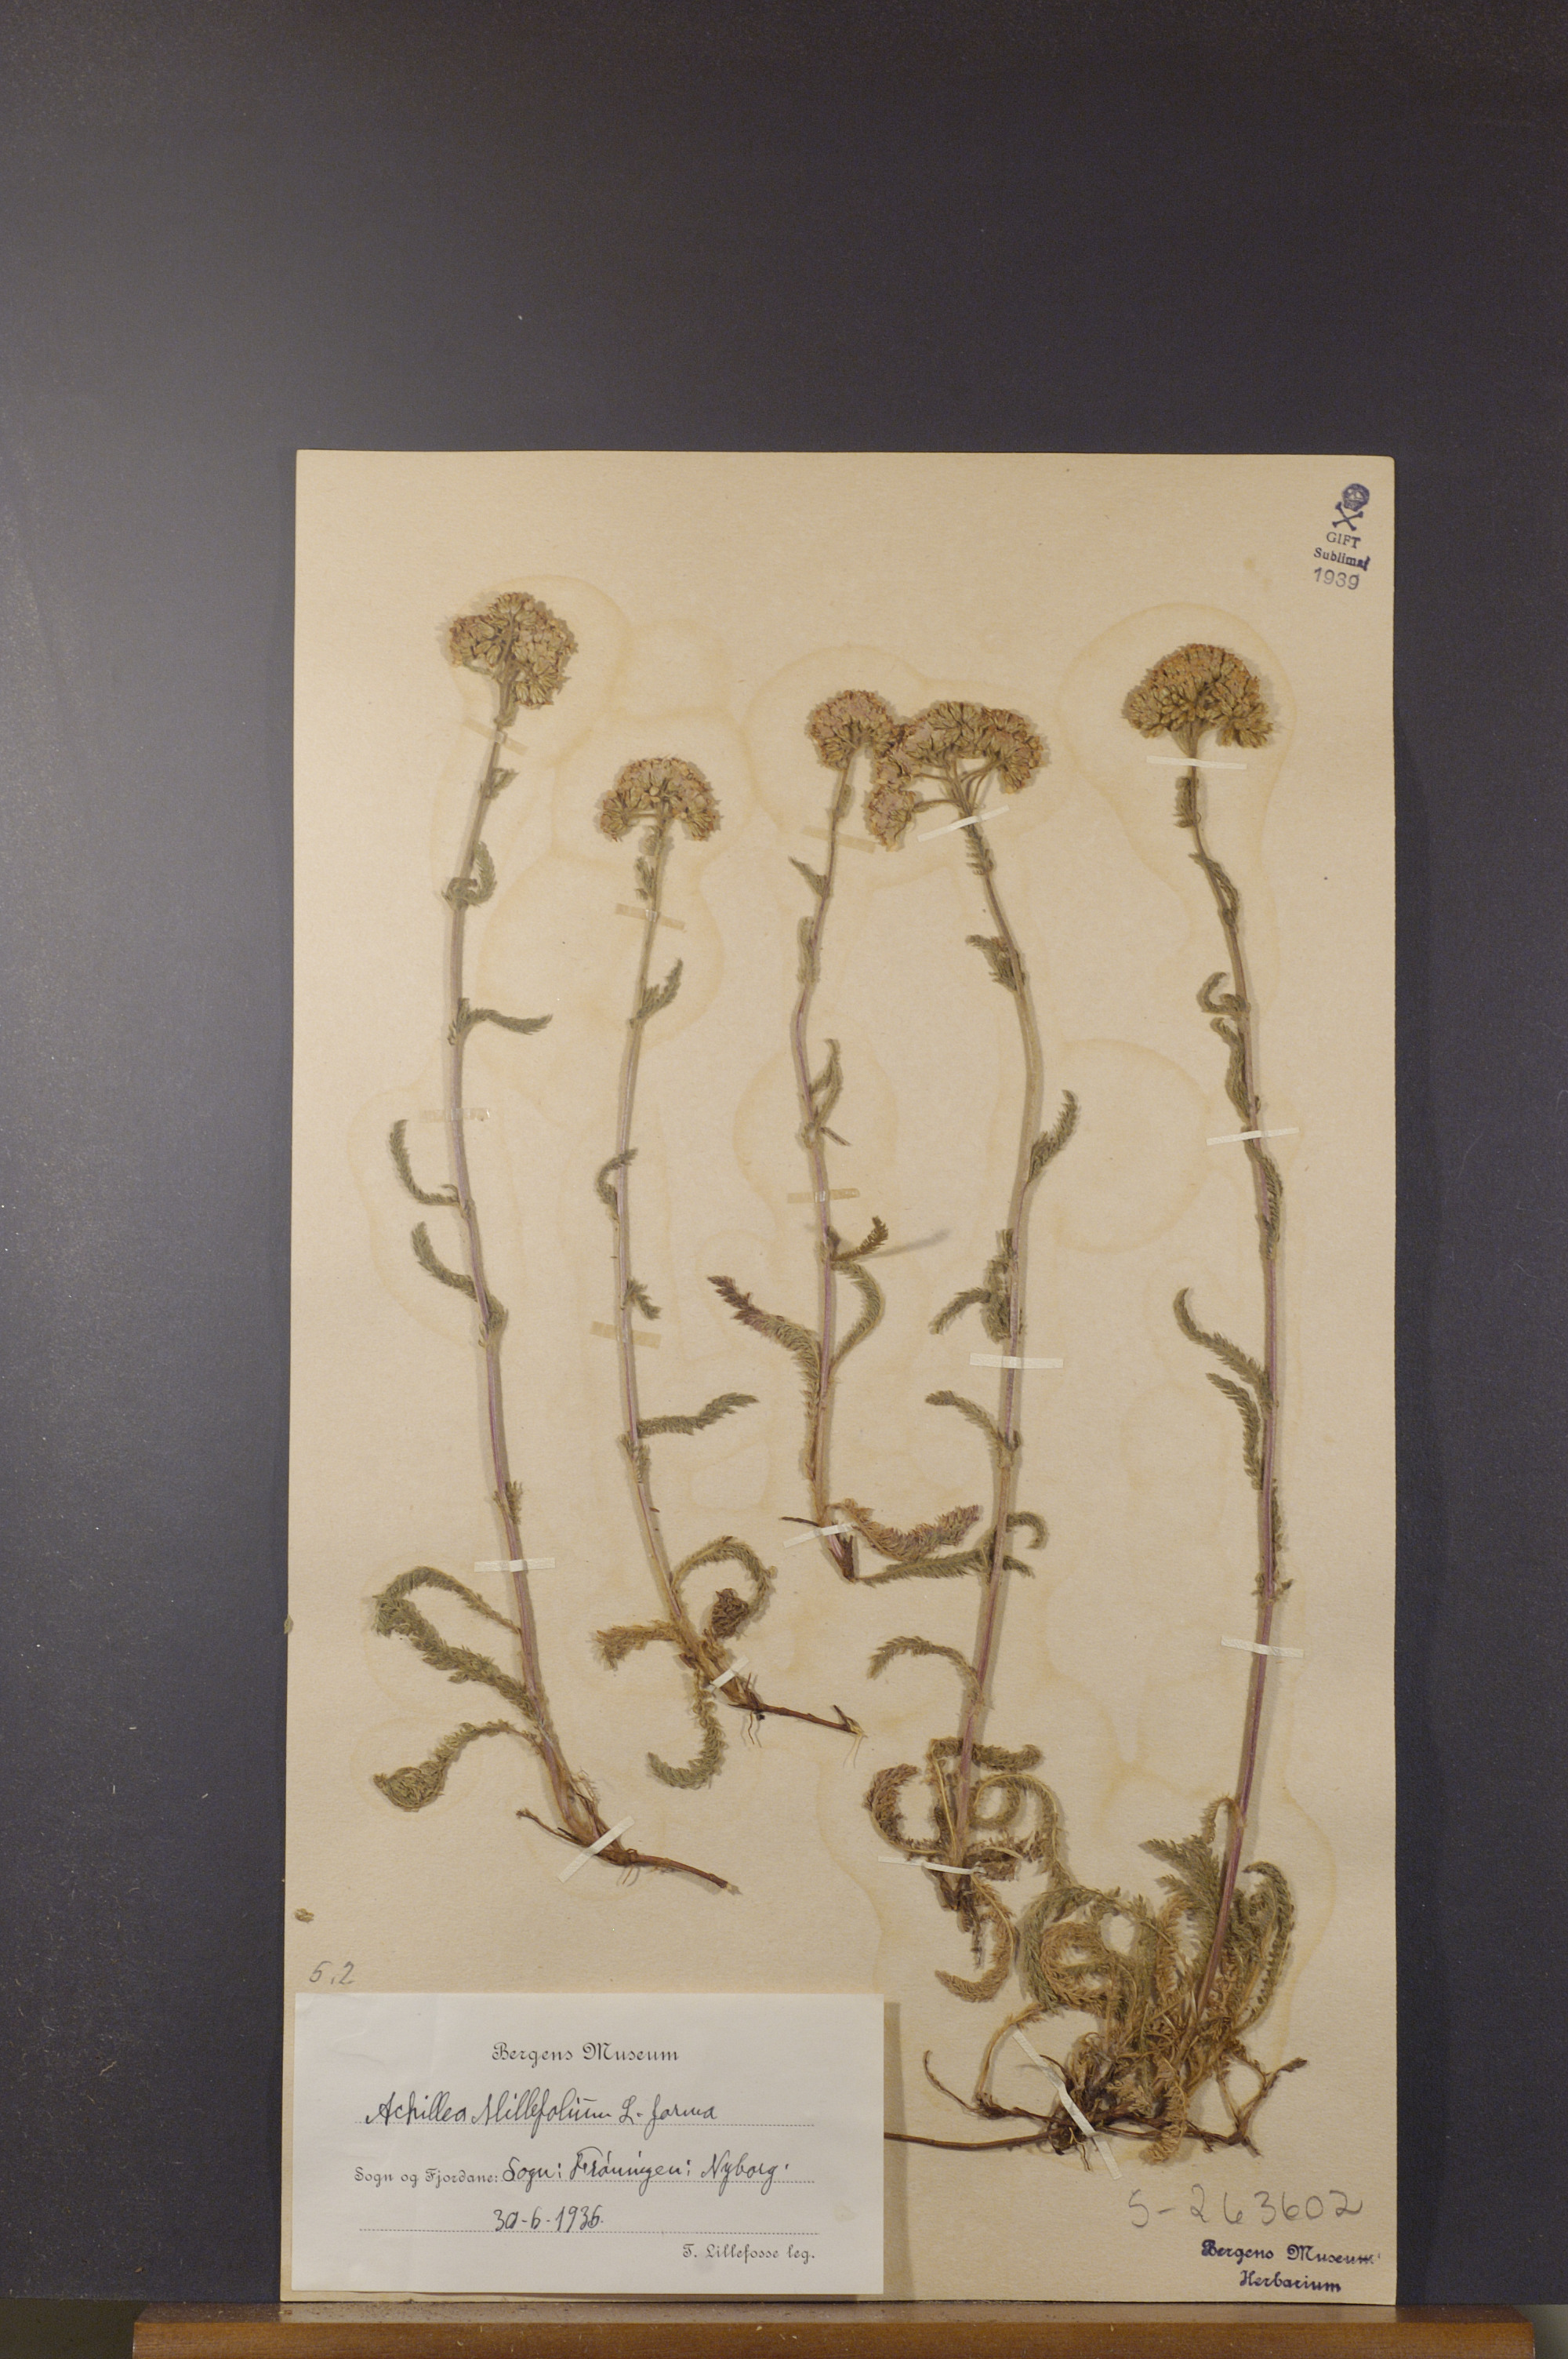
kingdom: Plantae
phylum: Tracheophyta
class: Magnoliopsida
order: Asterales
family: Asteraceae
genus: Achillea
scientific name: Achillea millefolium
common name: Yarrow
